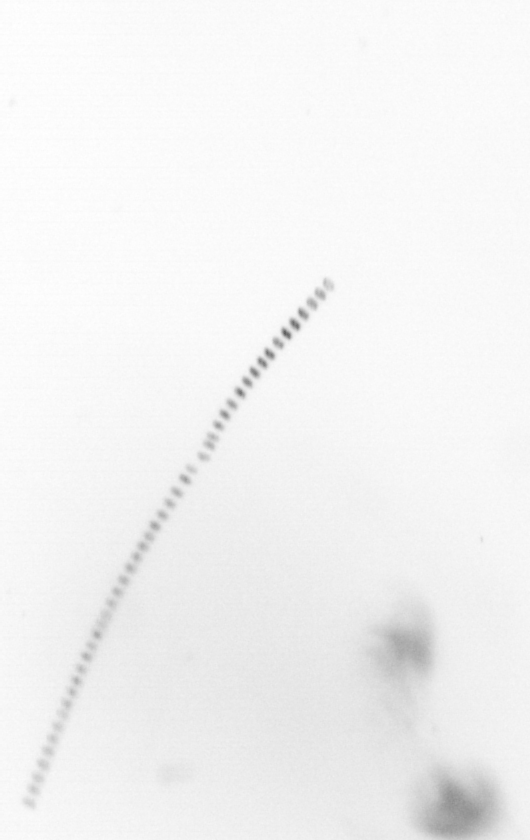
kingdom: Chromista
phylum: Ochrophyta
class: Bacillariophyceae
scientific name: Bacillariophyceae
